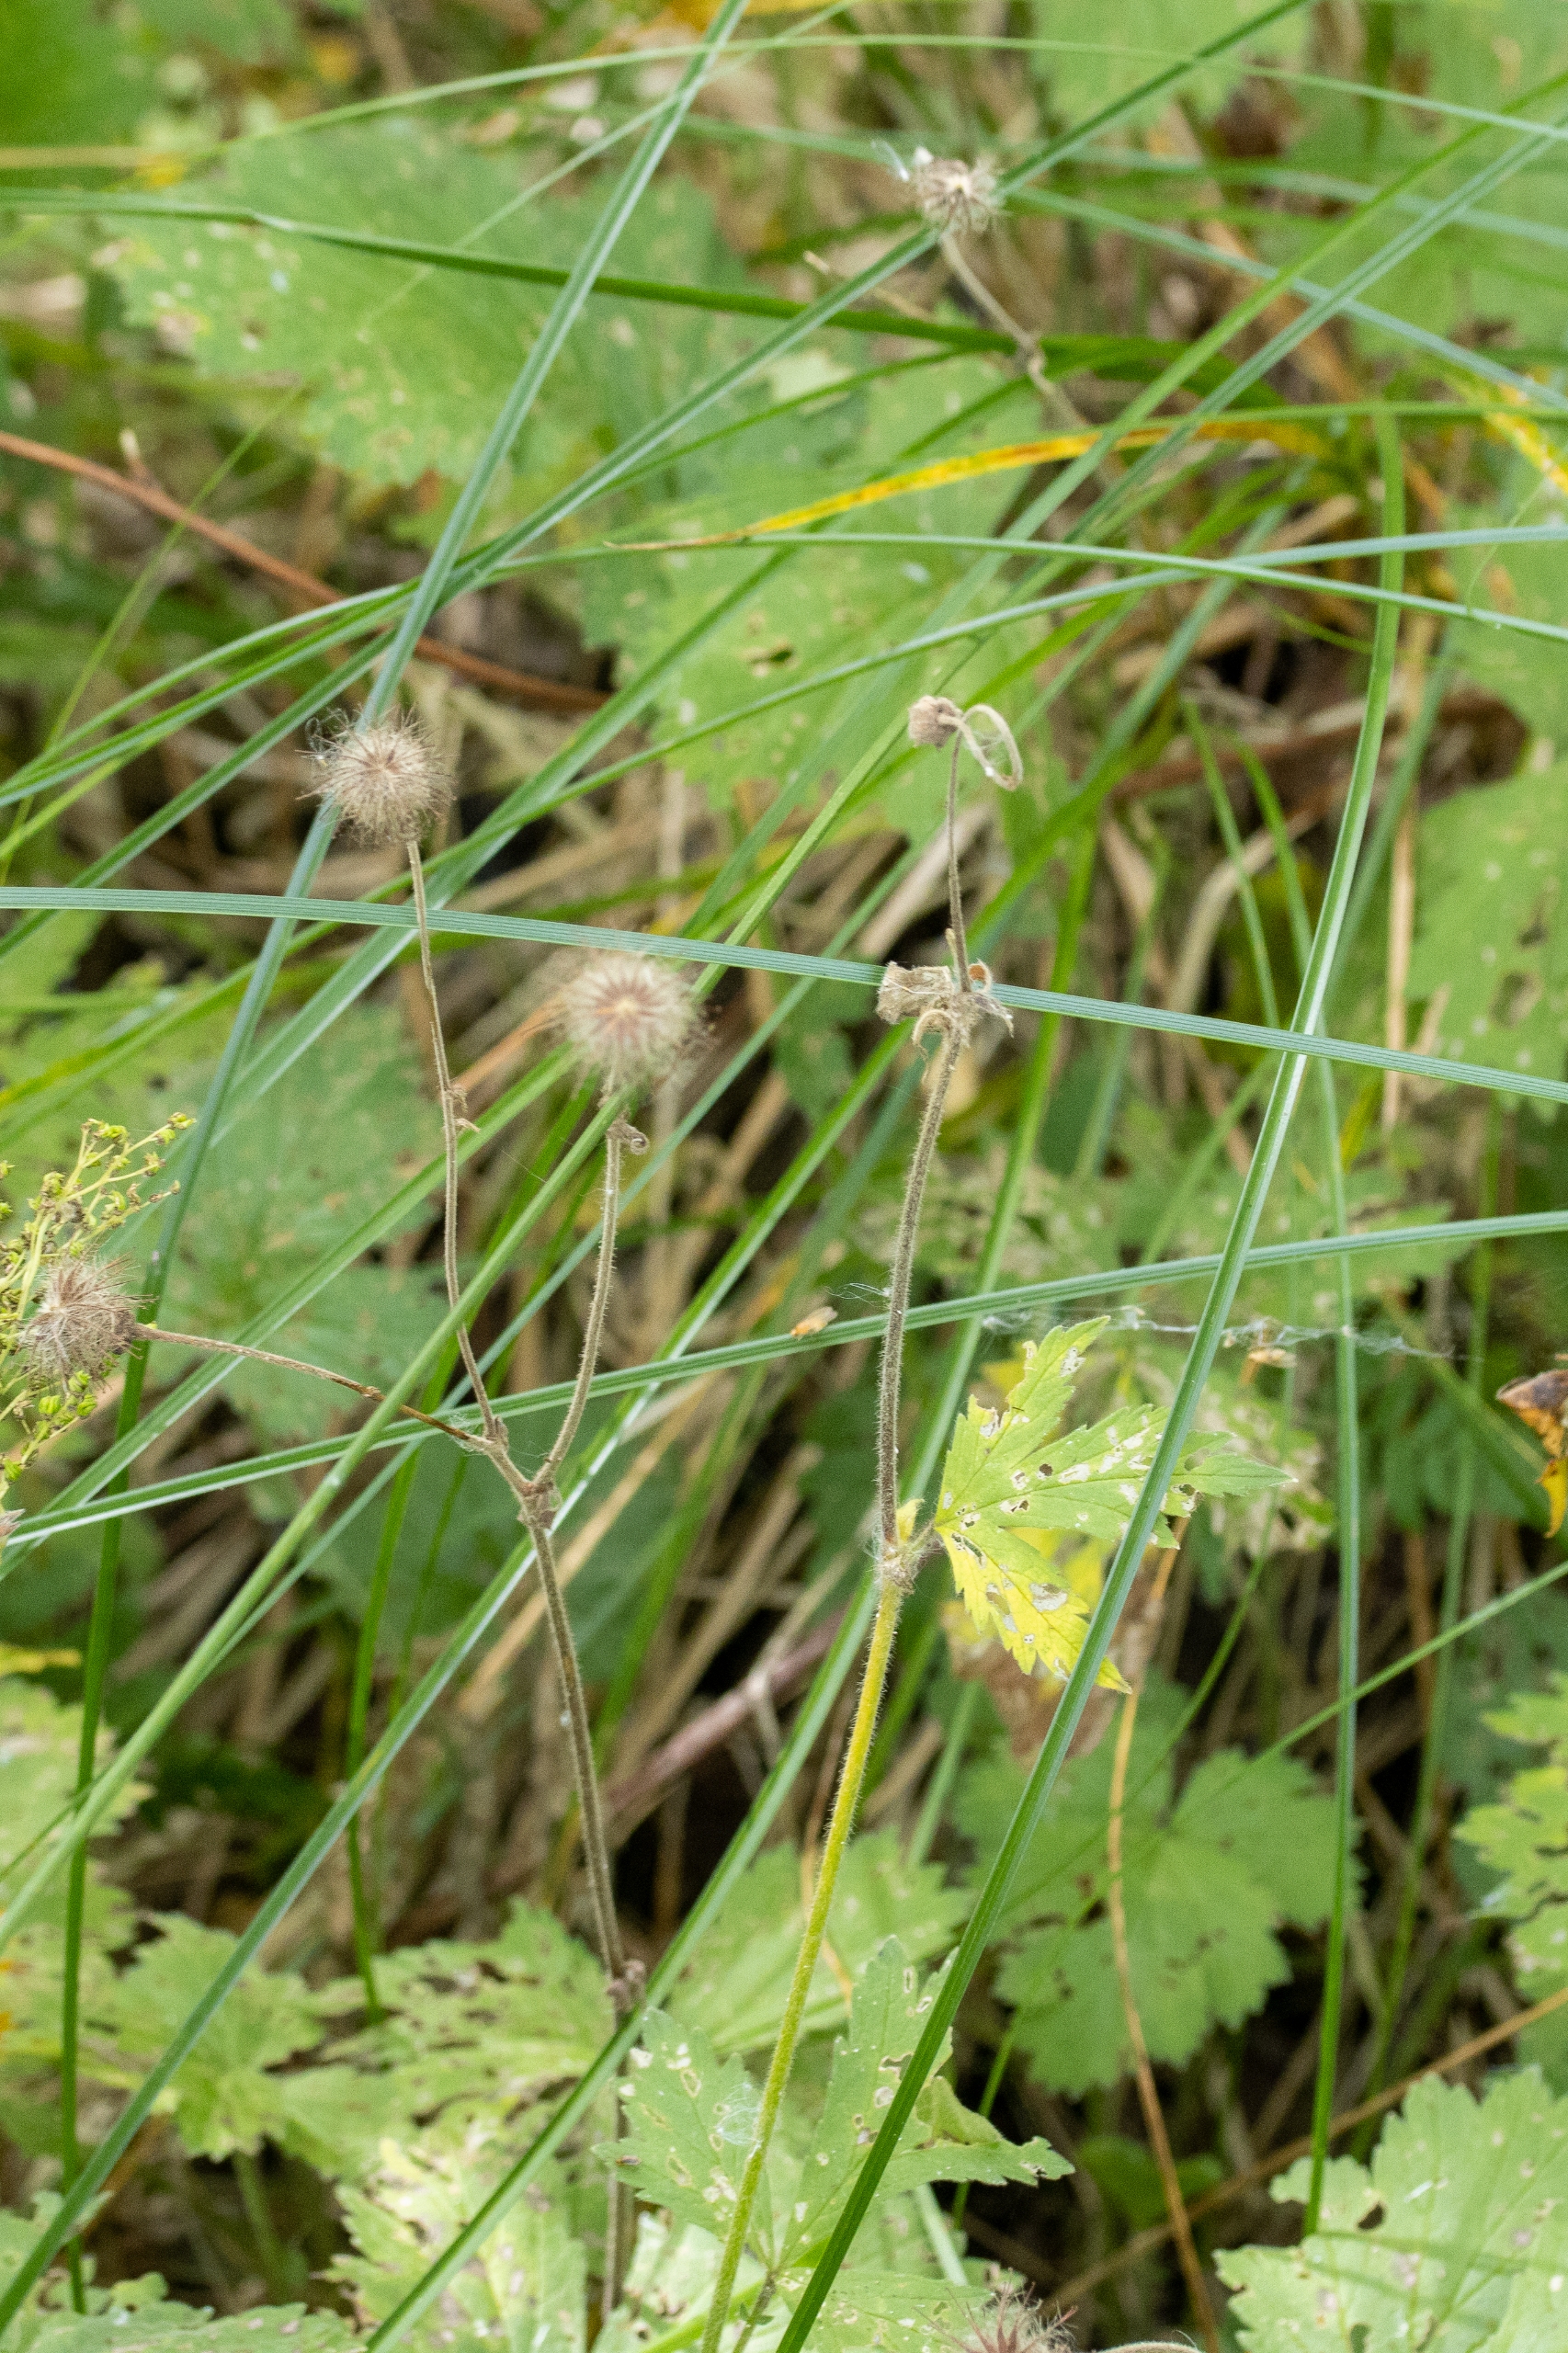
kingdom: Plantae
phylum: Tracheophyta
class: Magnoliopsida
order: Rosales
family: Rosaceae
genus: Geum
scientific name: Geum rivale
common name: Eng-nellikerod
